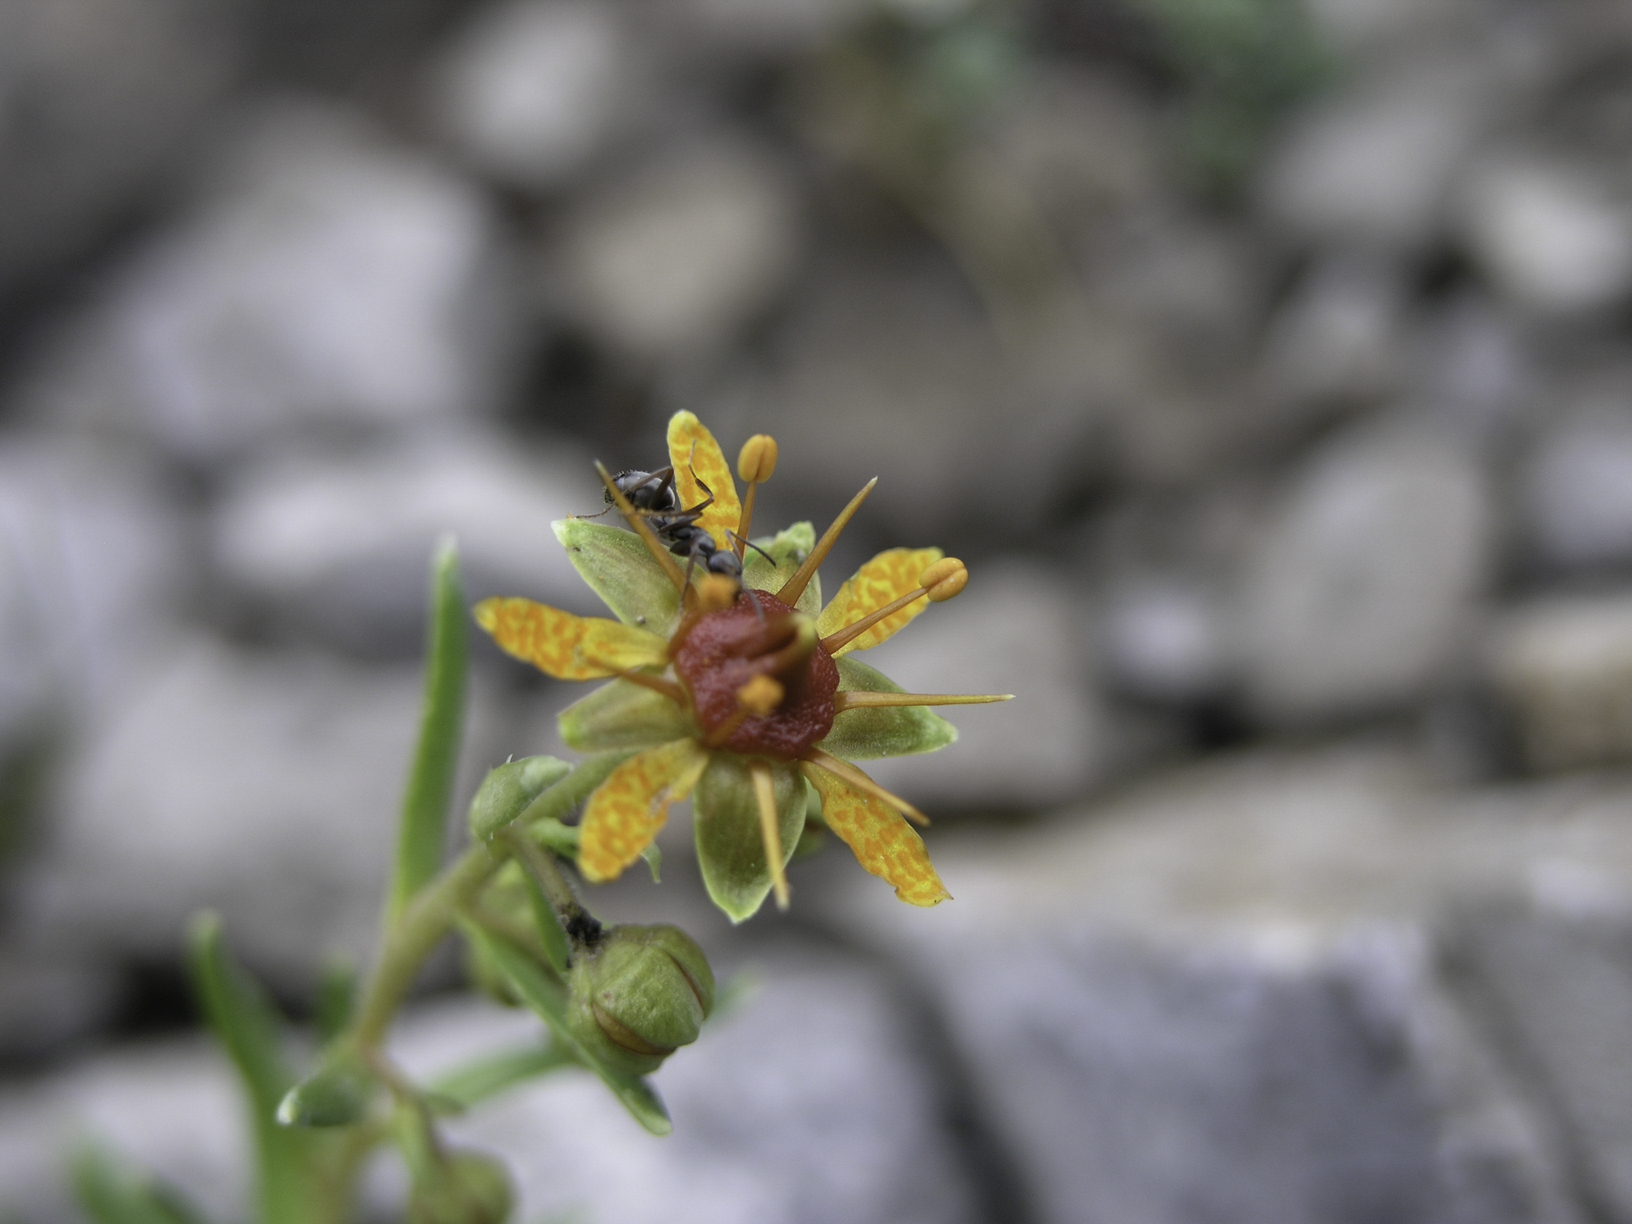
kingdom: Plantae
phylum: Tracheophyta
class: Magnoliopsida
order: Saxifragales
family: Saxifragaceae
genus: Saxifraga
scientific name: Saxifraga aizoides
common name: Yellow mountain saxifrage
